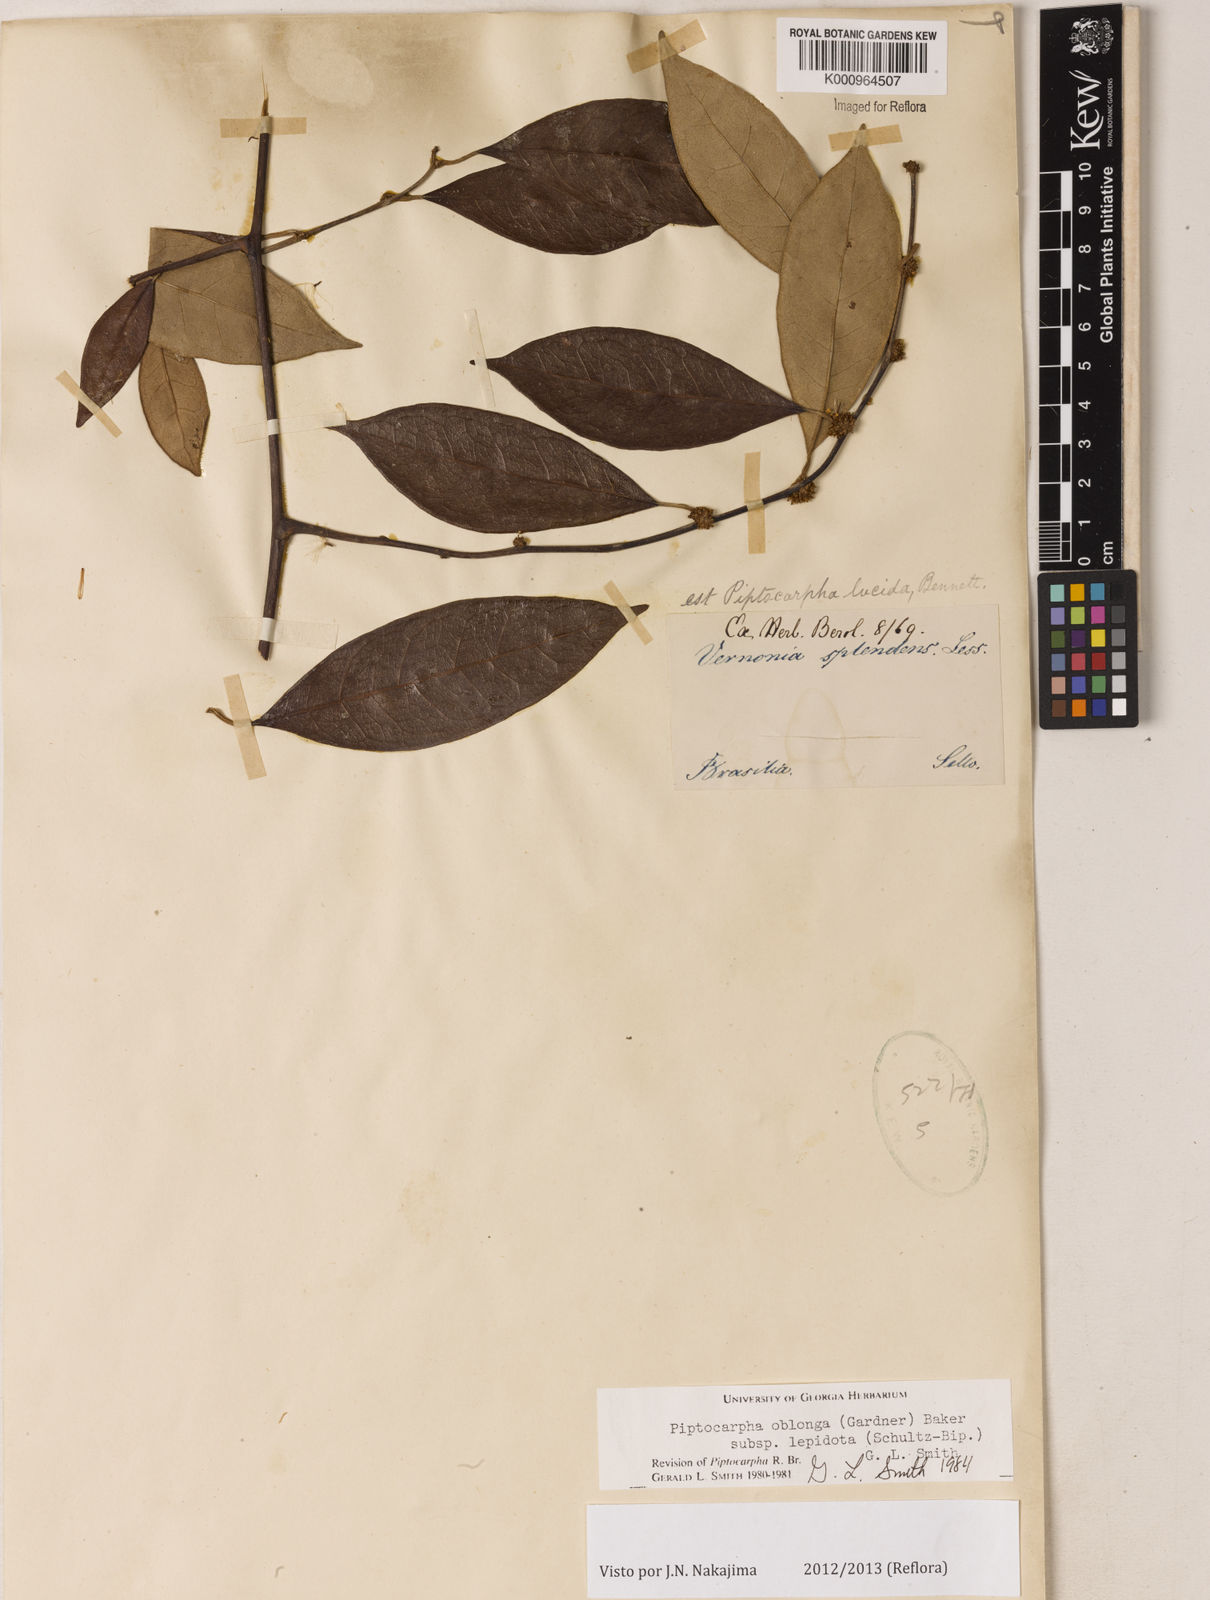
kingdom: Plantae
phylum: Tracheophyta
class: Magnoliopsida
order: Asterales
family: Asteraceae
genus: Piptocarpha
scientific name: Piptocarpha oblonga
